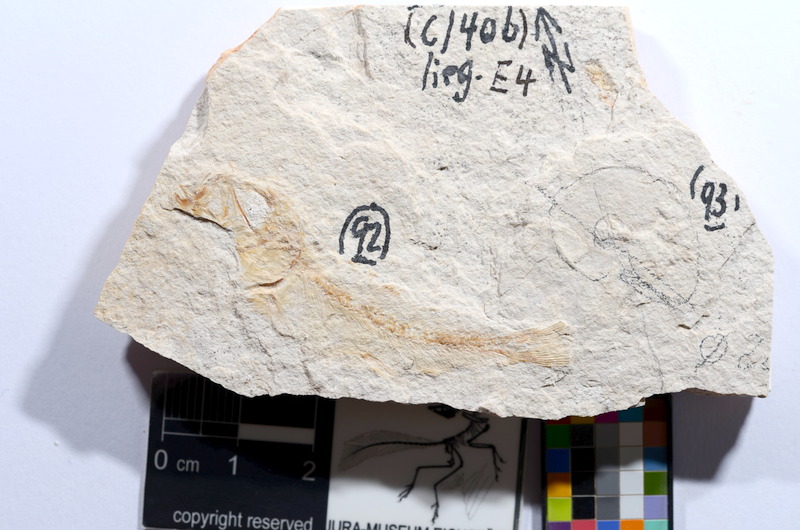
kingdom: Animalia
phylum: Chordata
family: Ascalaboidae
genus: Tharsis
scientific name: Tharsis dubius
